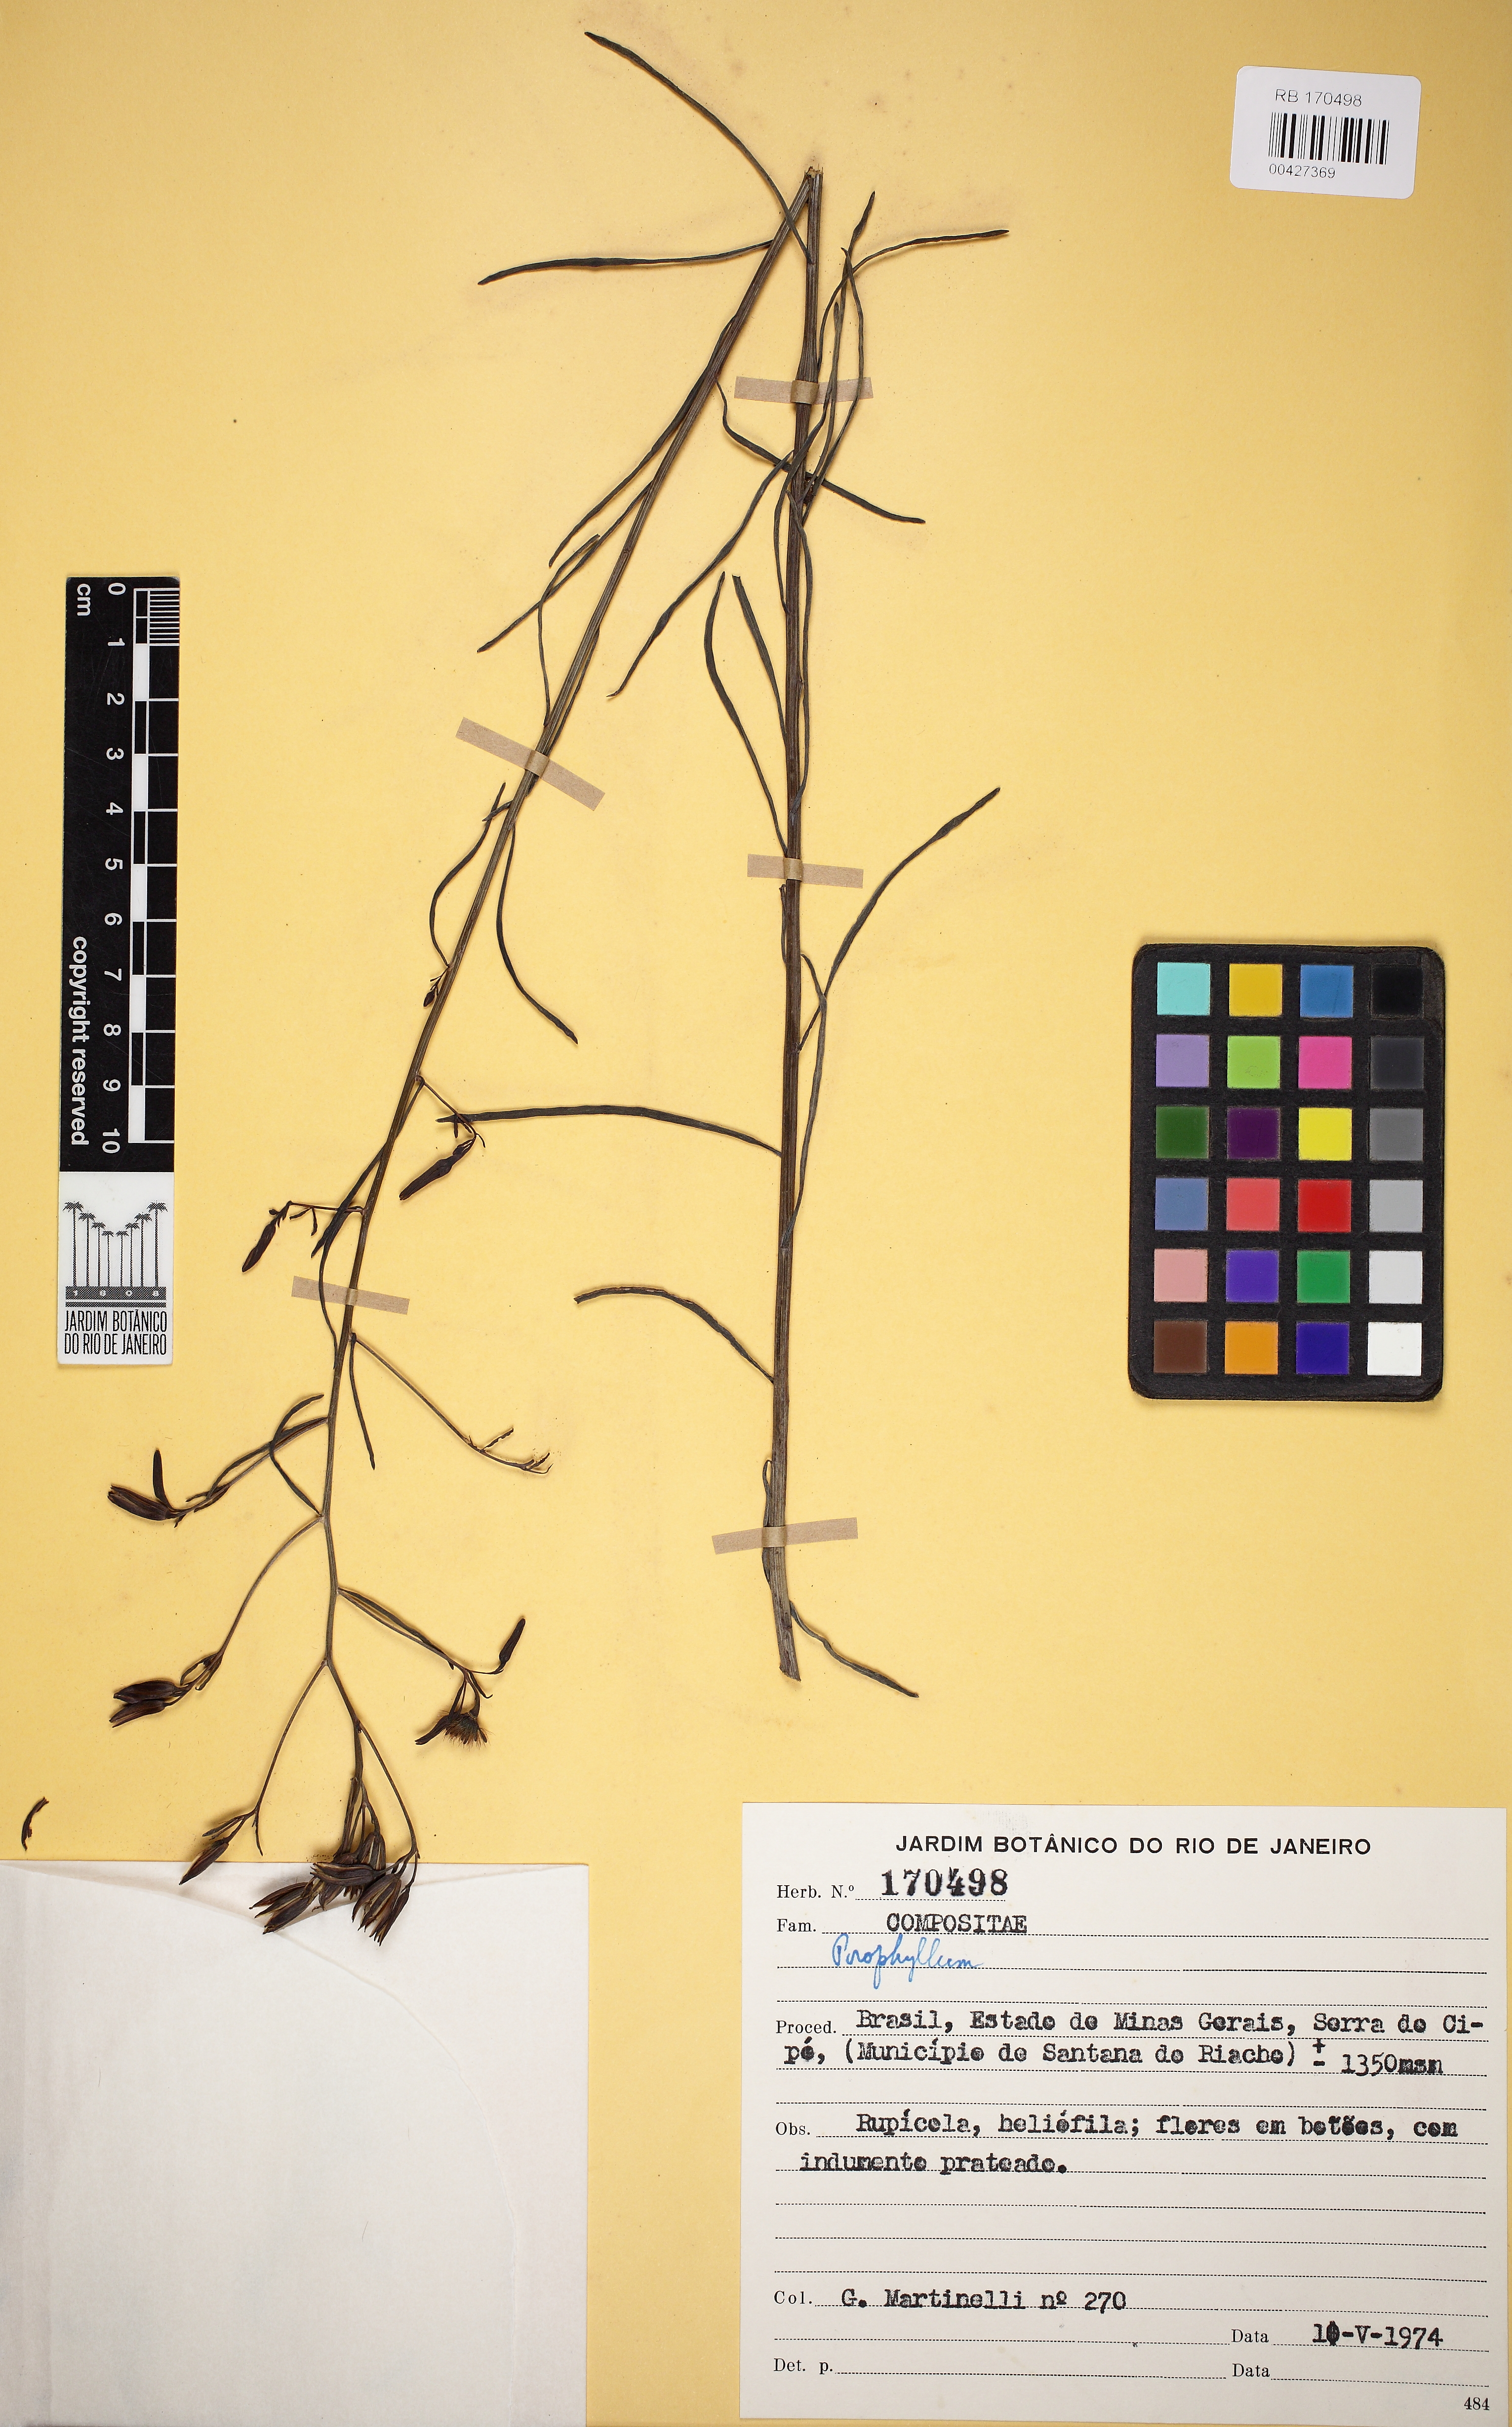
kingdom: Plantae
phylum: Tracheophyta
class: Magnoliopsida
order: Asterales
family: Asteraceae
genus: Porophyllum
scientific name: Porophyllum
